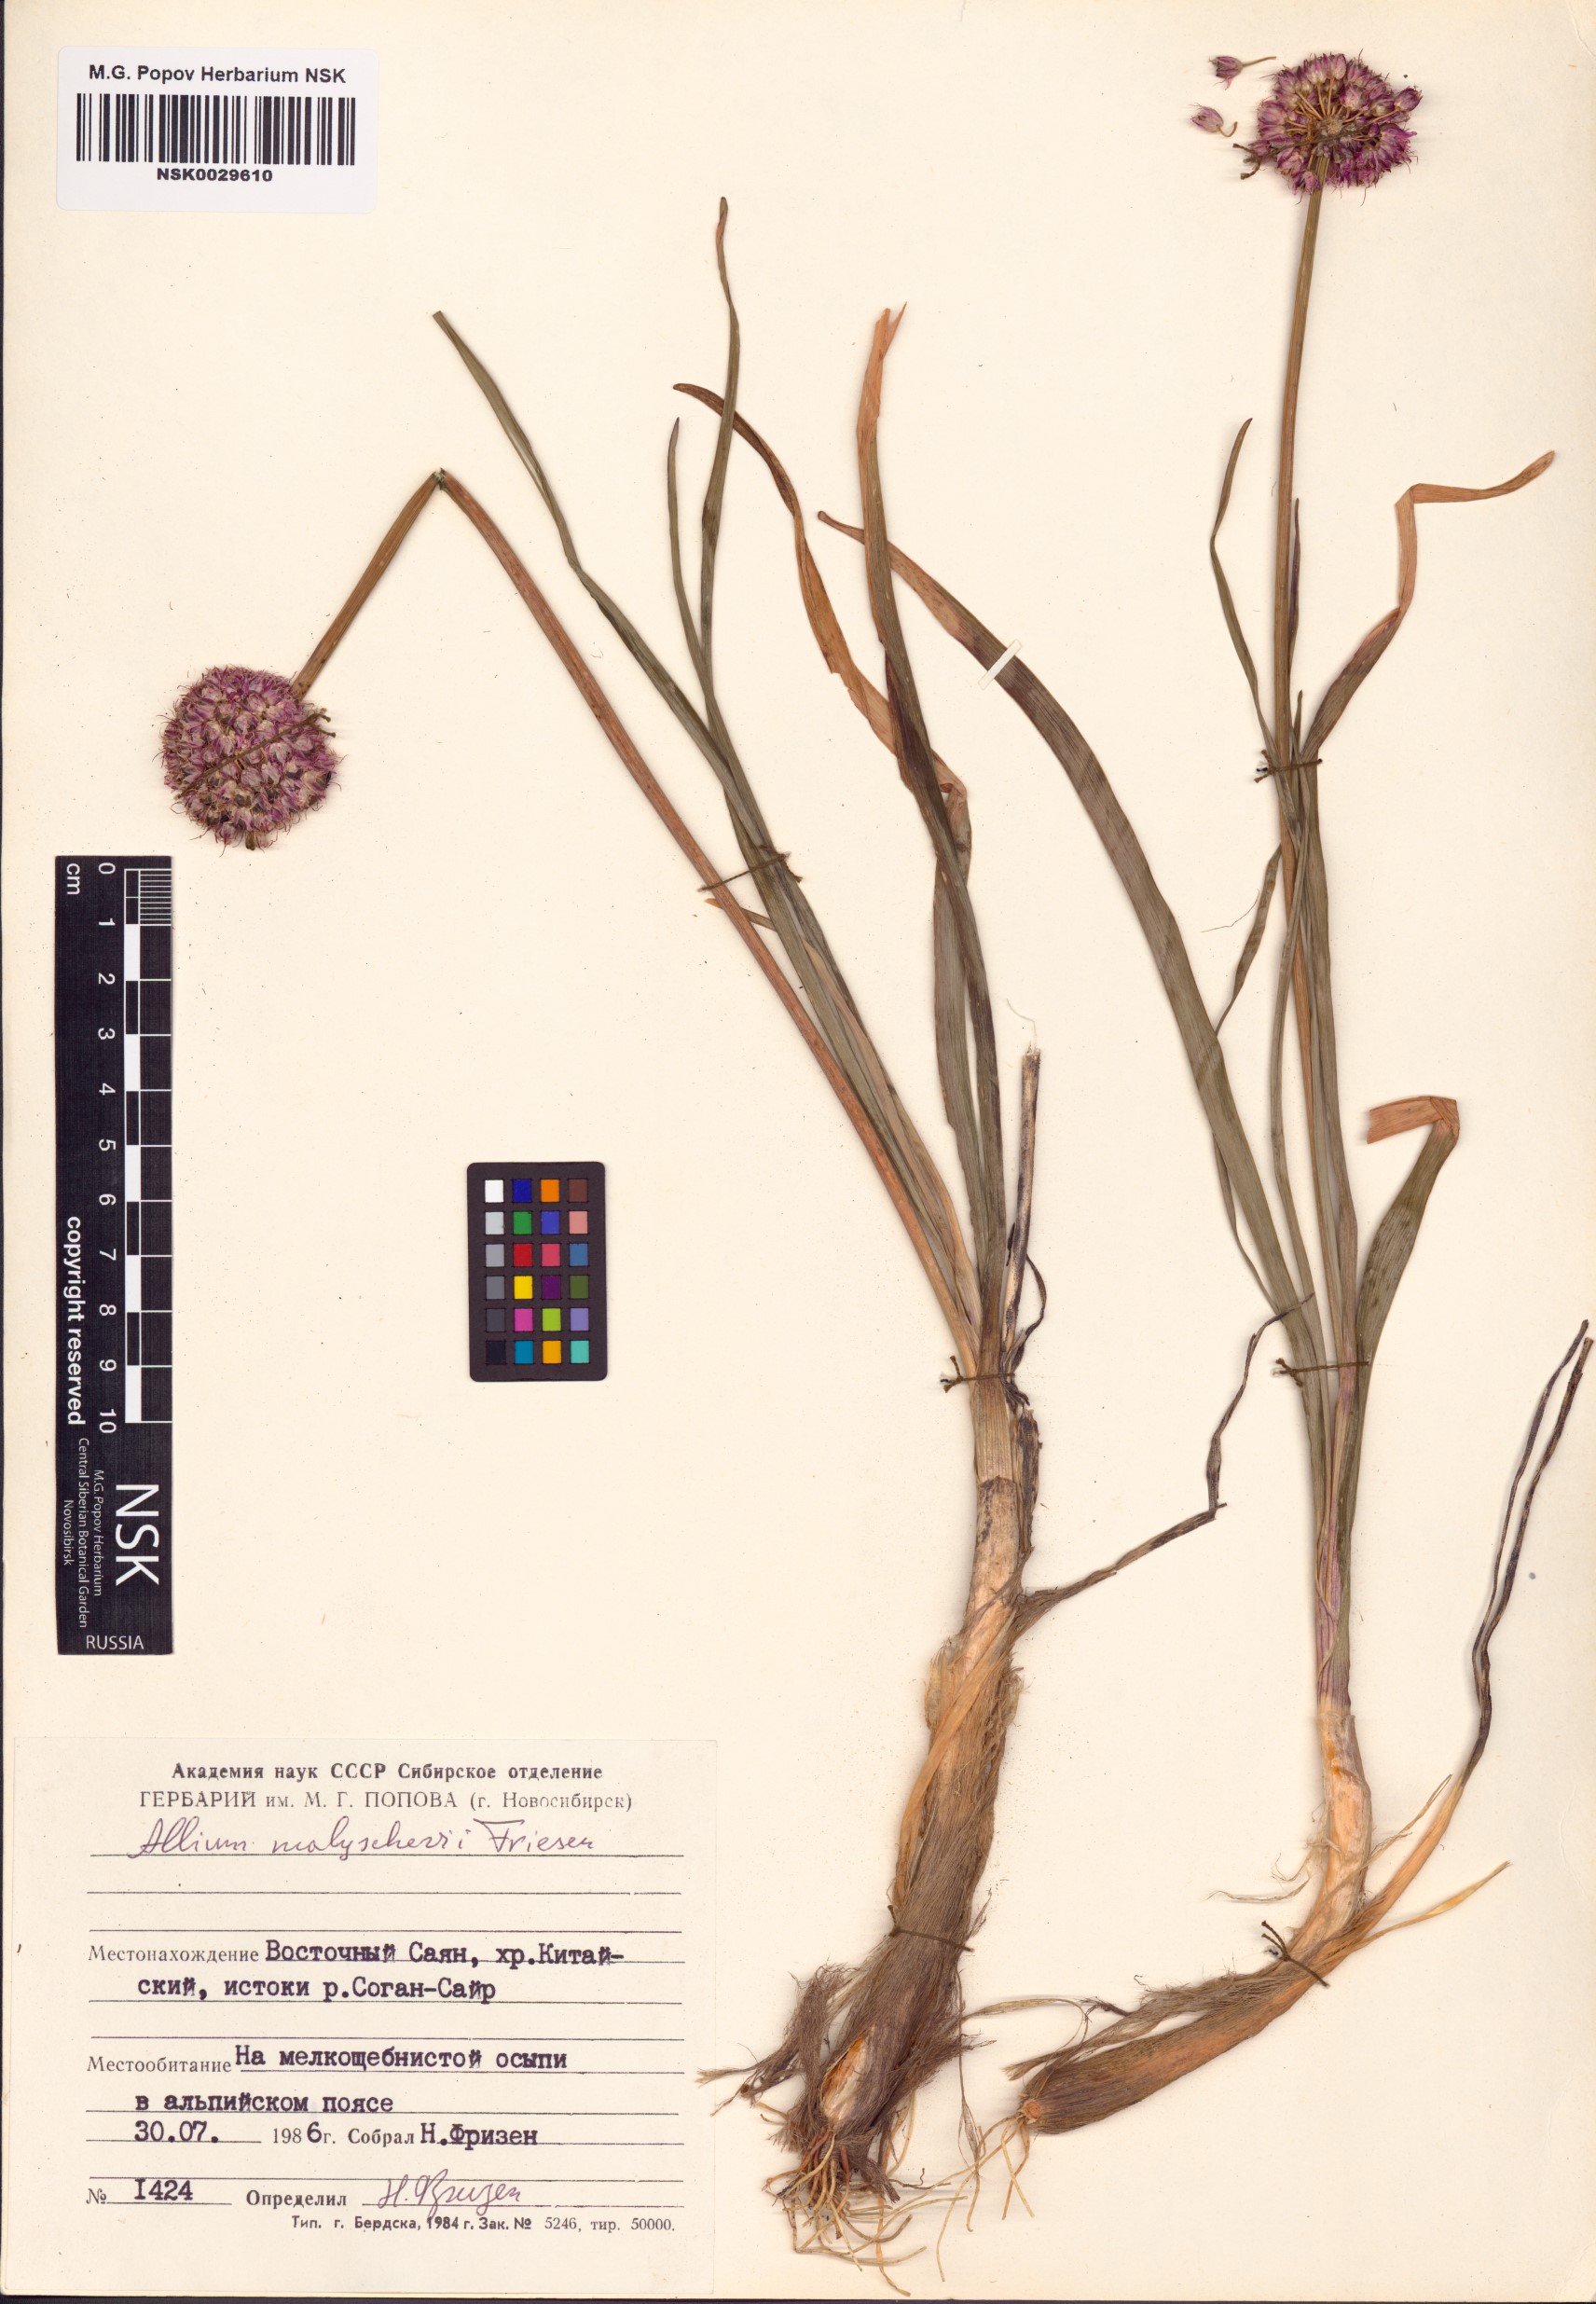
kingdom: Plantae
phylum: Tracheophyta
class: Liliopsida
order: Asparagales
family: Amaryllidaceae
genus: Allium
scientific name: Allium malyschevii
